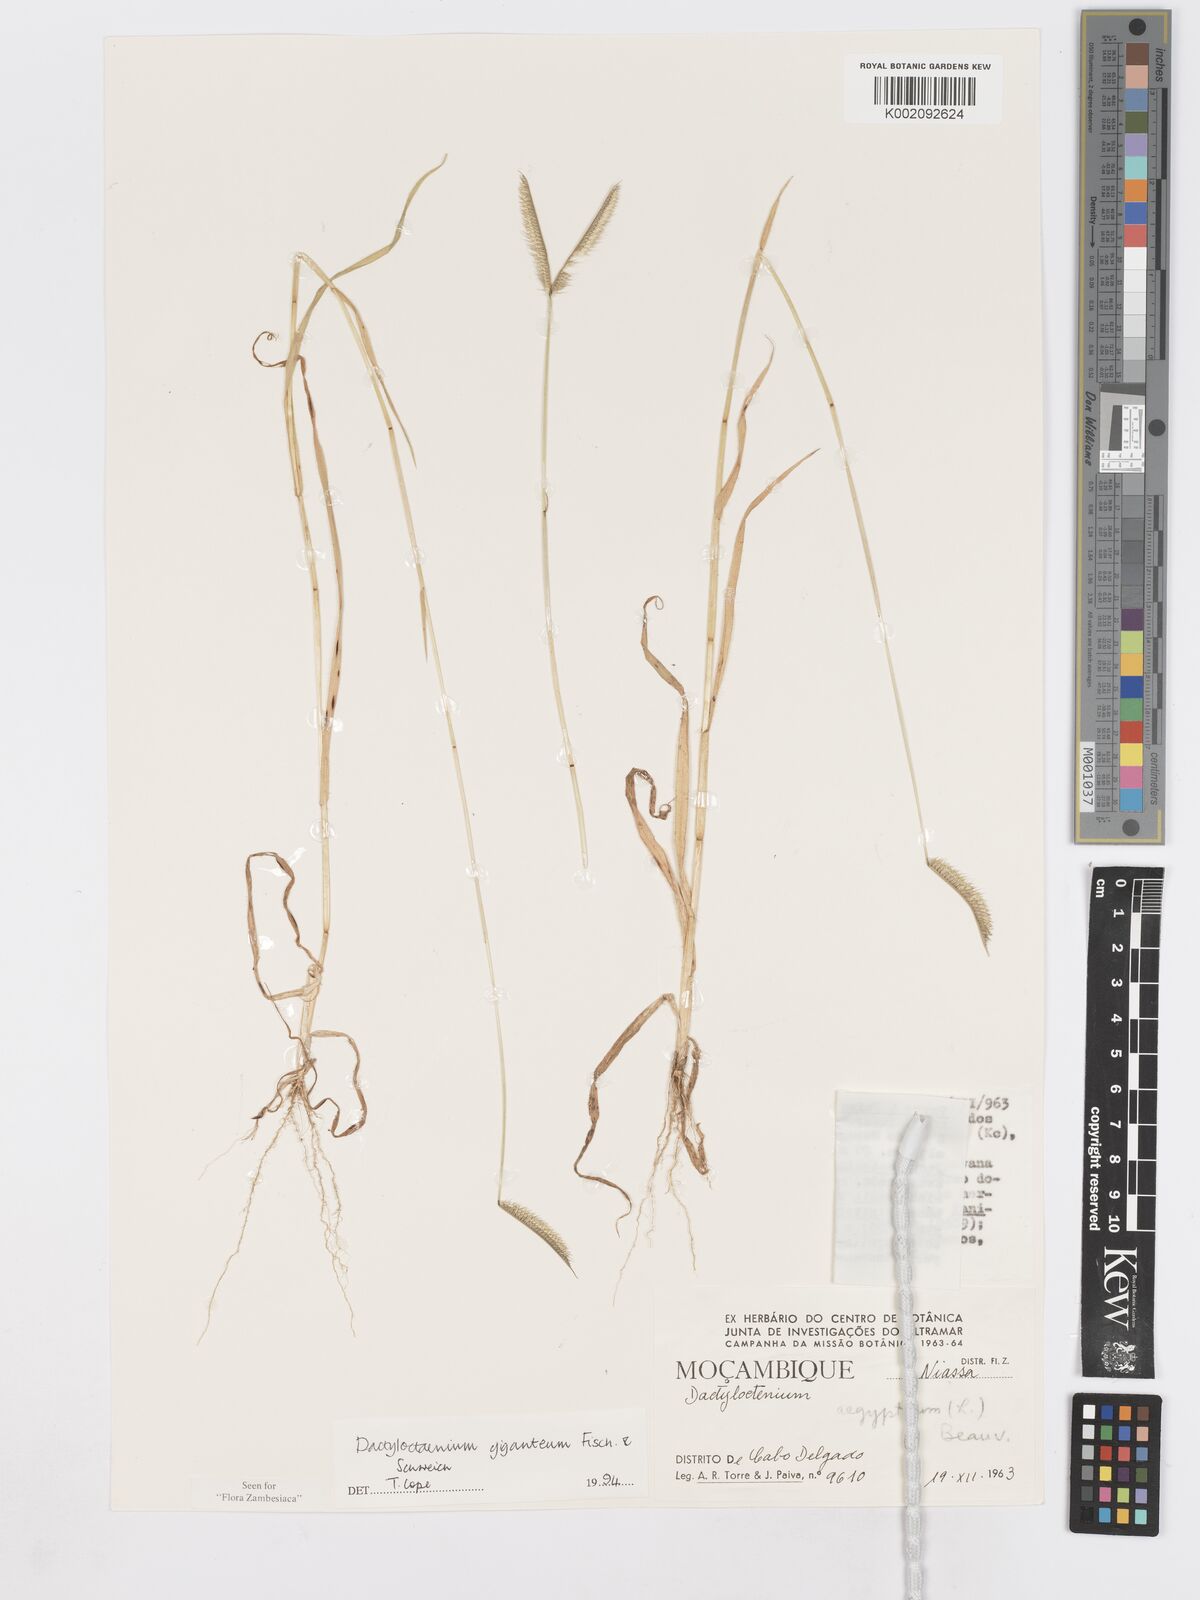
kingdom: Plantae
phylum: Tracheophyta
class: Liliopsida
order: Poales
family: Poaceae
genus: Dactyloctenium
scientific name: Dactyloctenium giganteum
